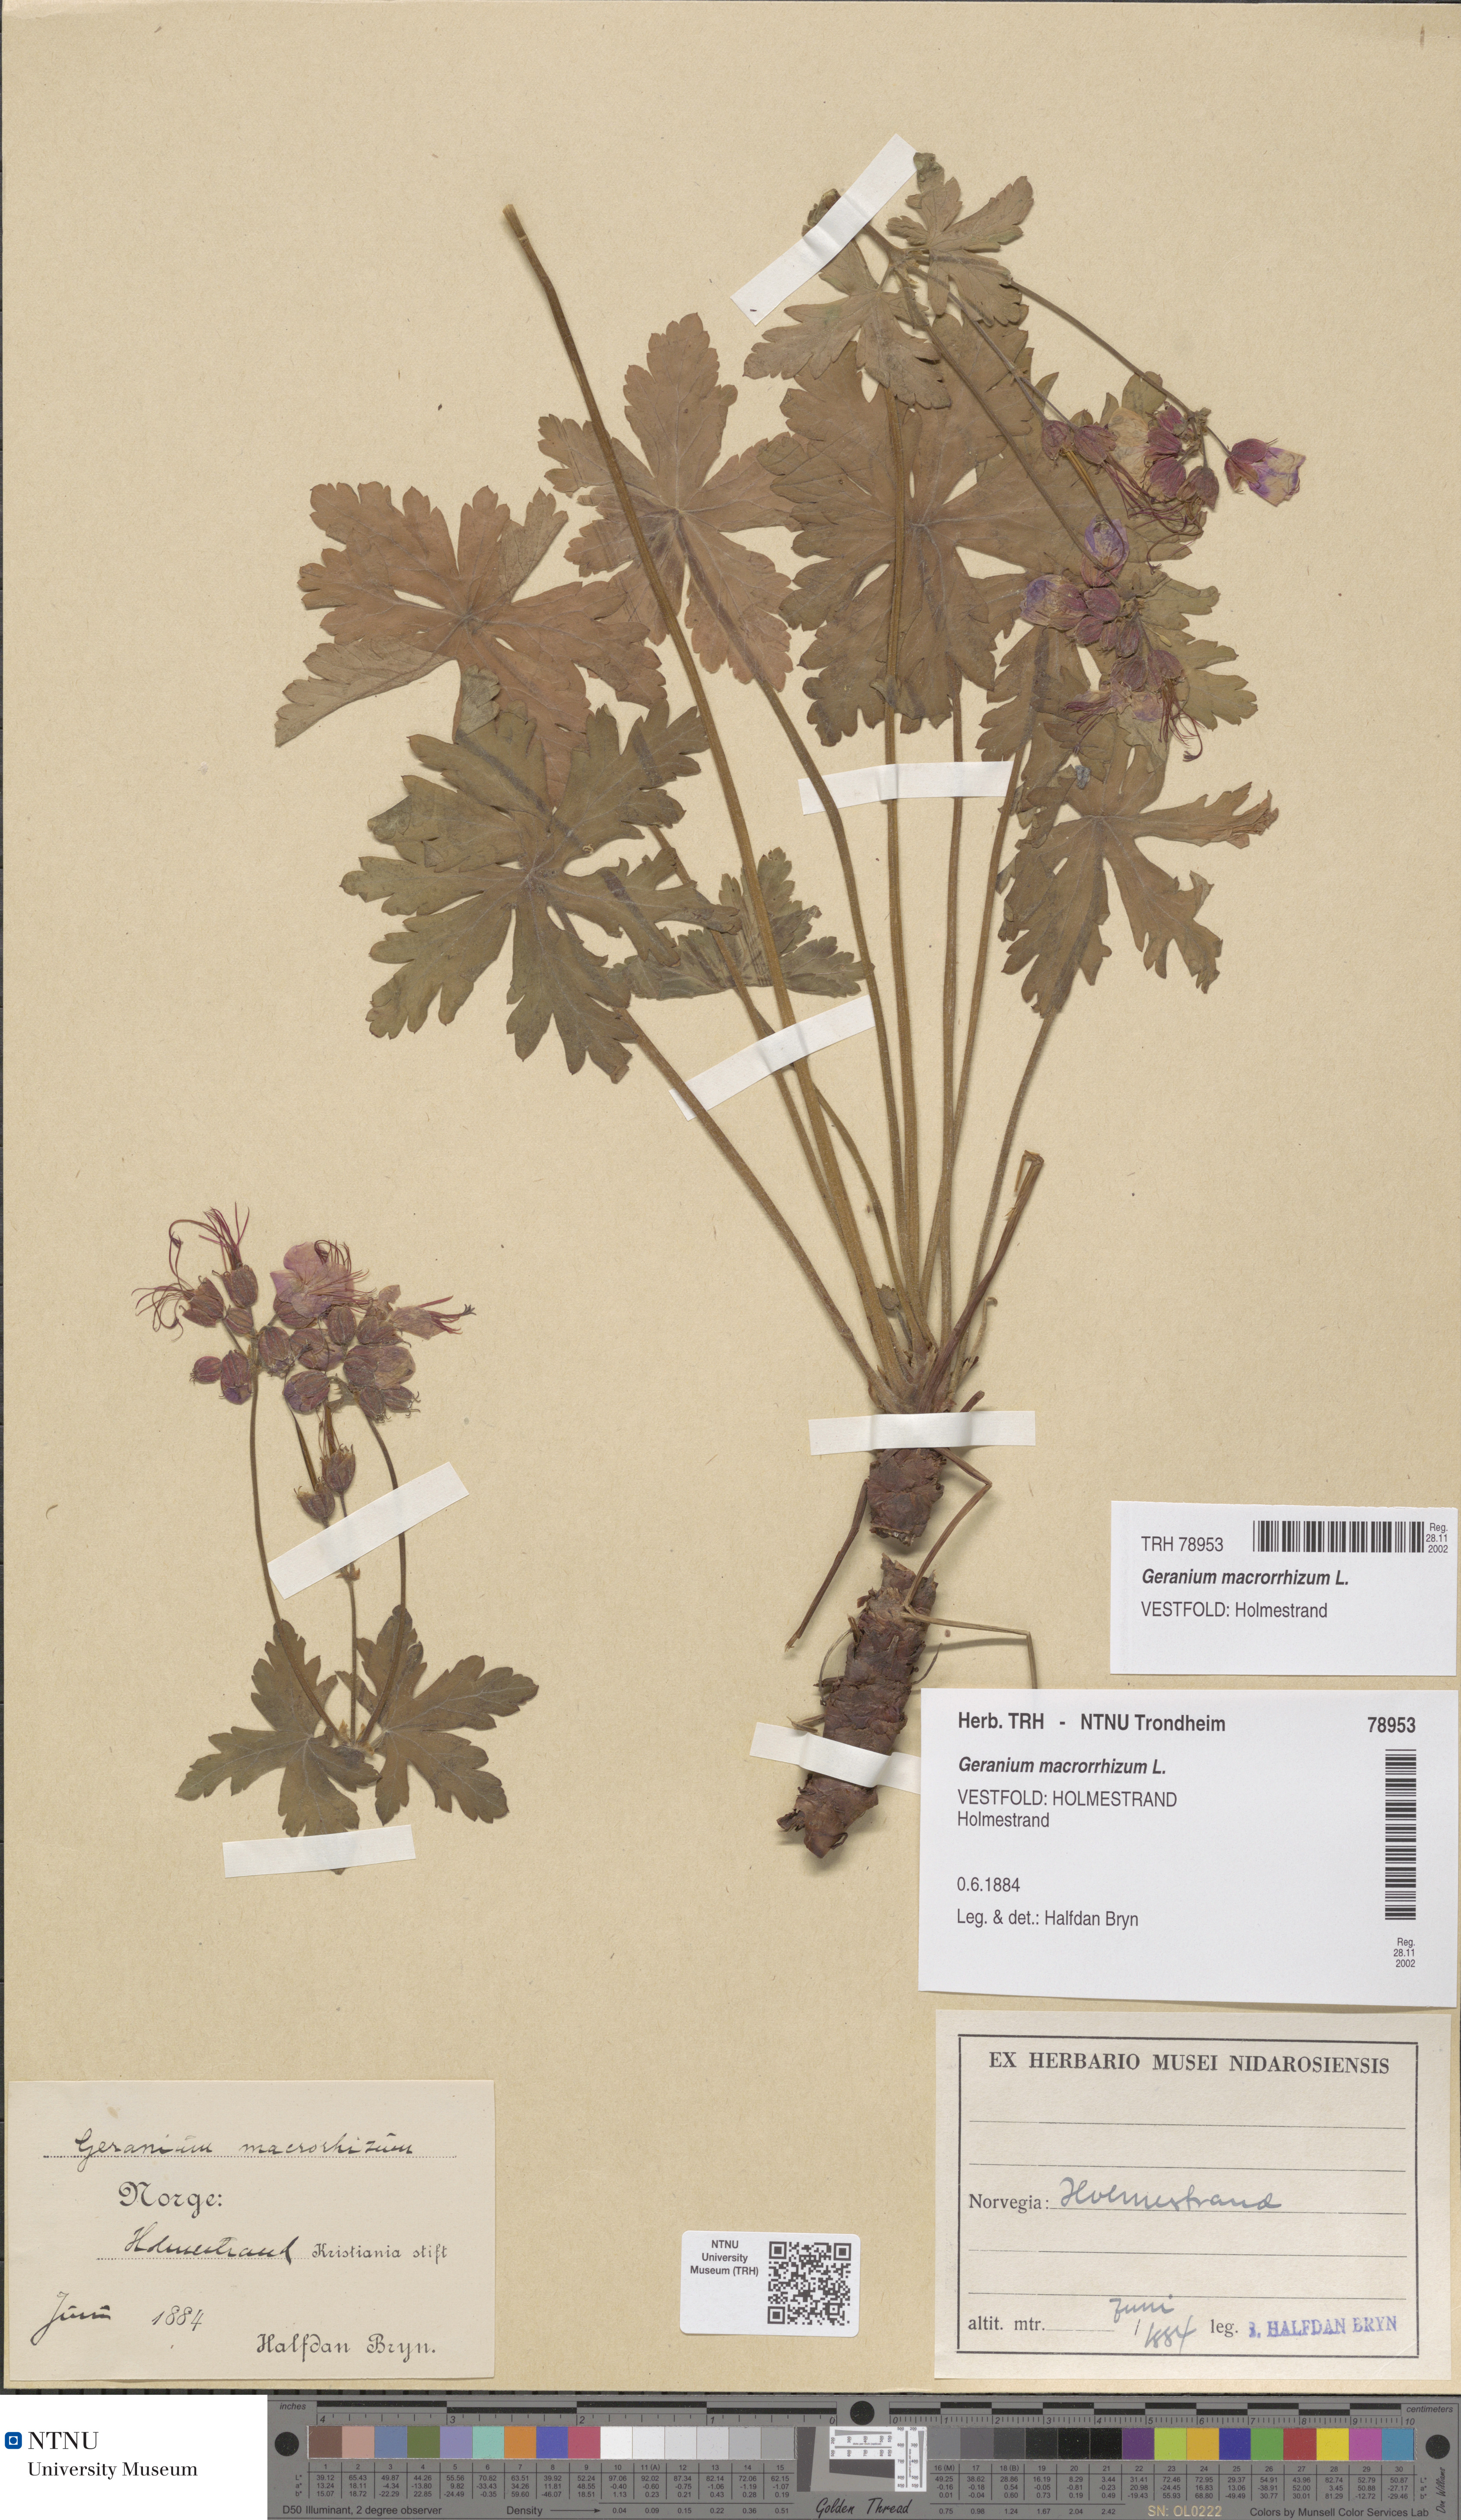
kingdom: Plantae
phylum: Tracheophyta
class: Magnoliopsida
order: Geraniales
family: Geraniaceae
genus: Geranium
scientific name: Geranium macrorrhizum
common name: Rock crane's-bill
